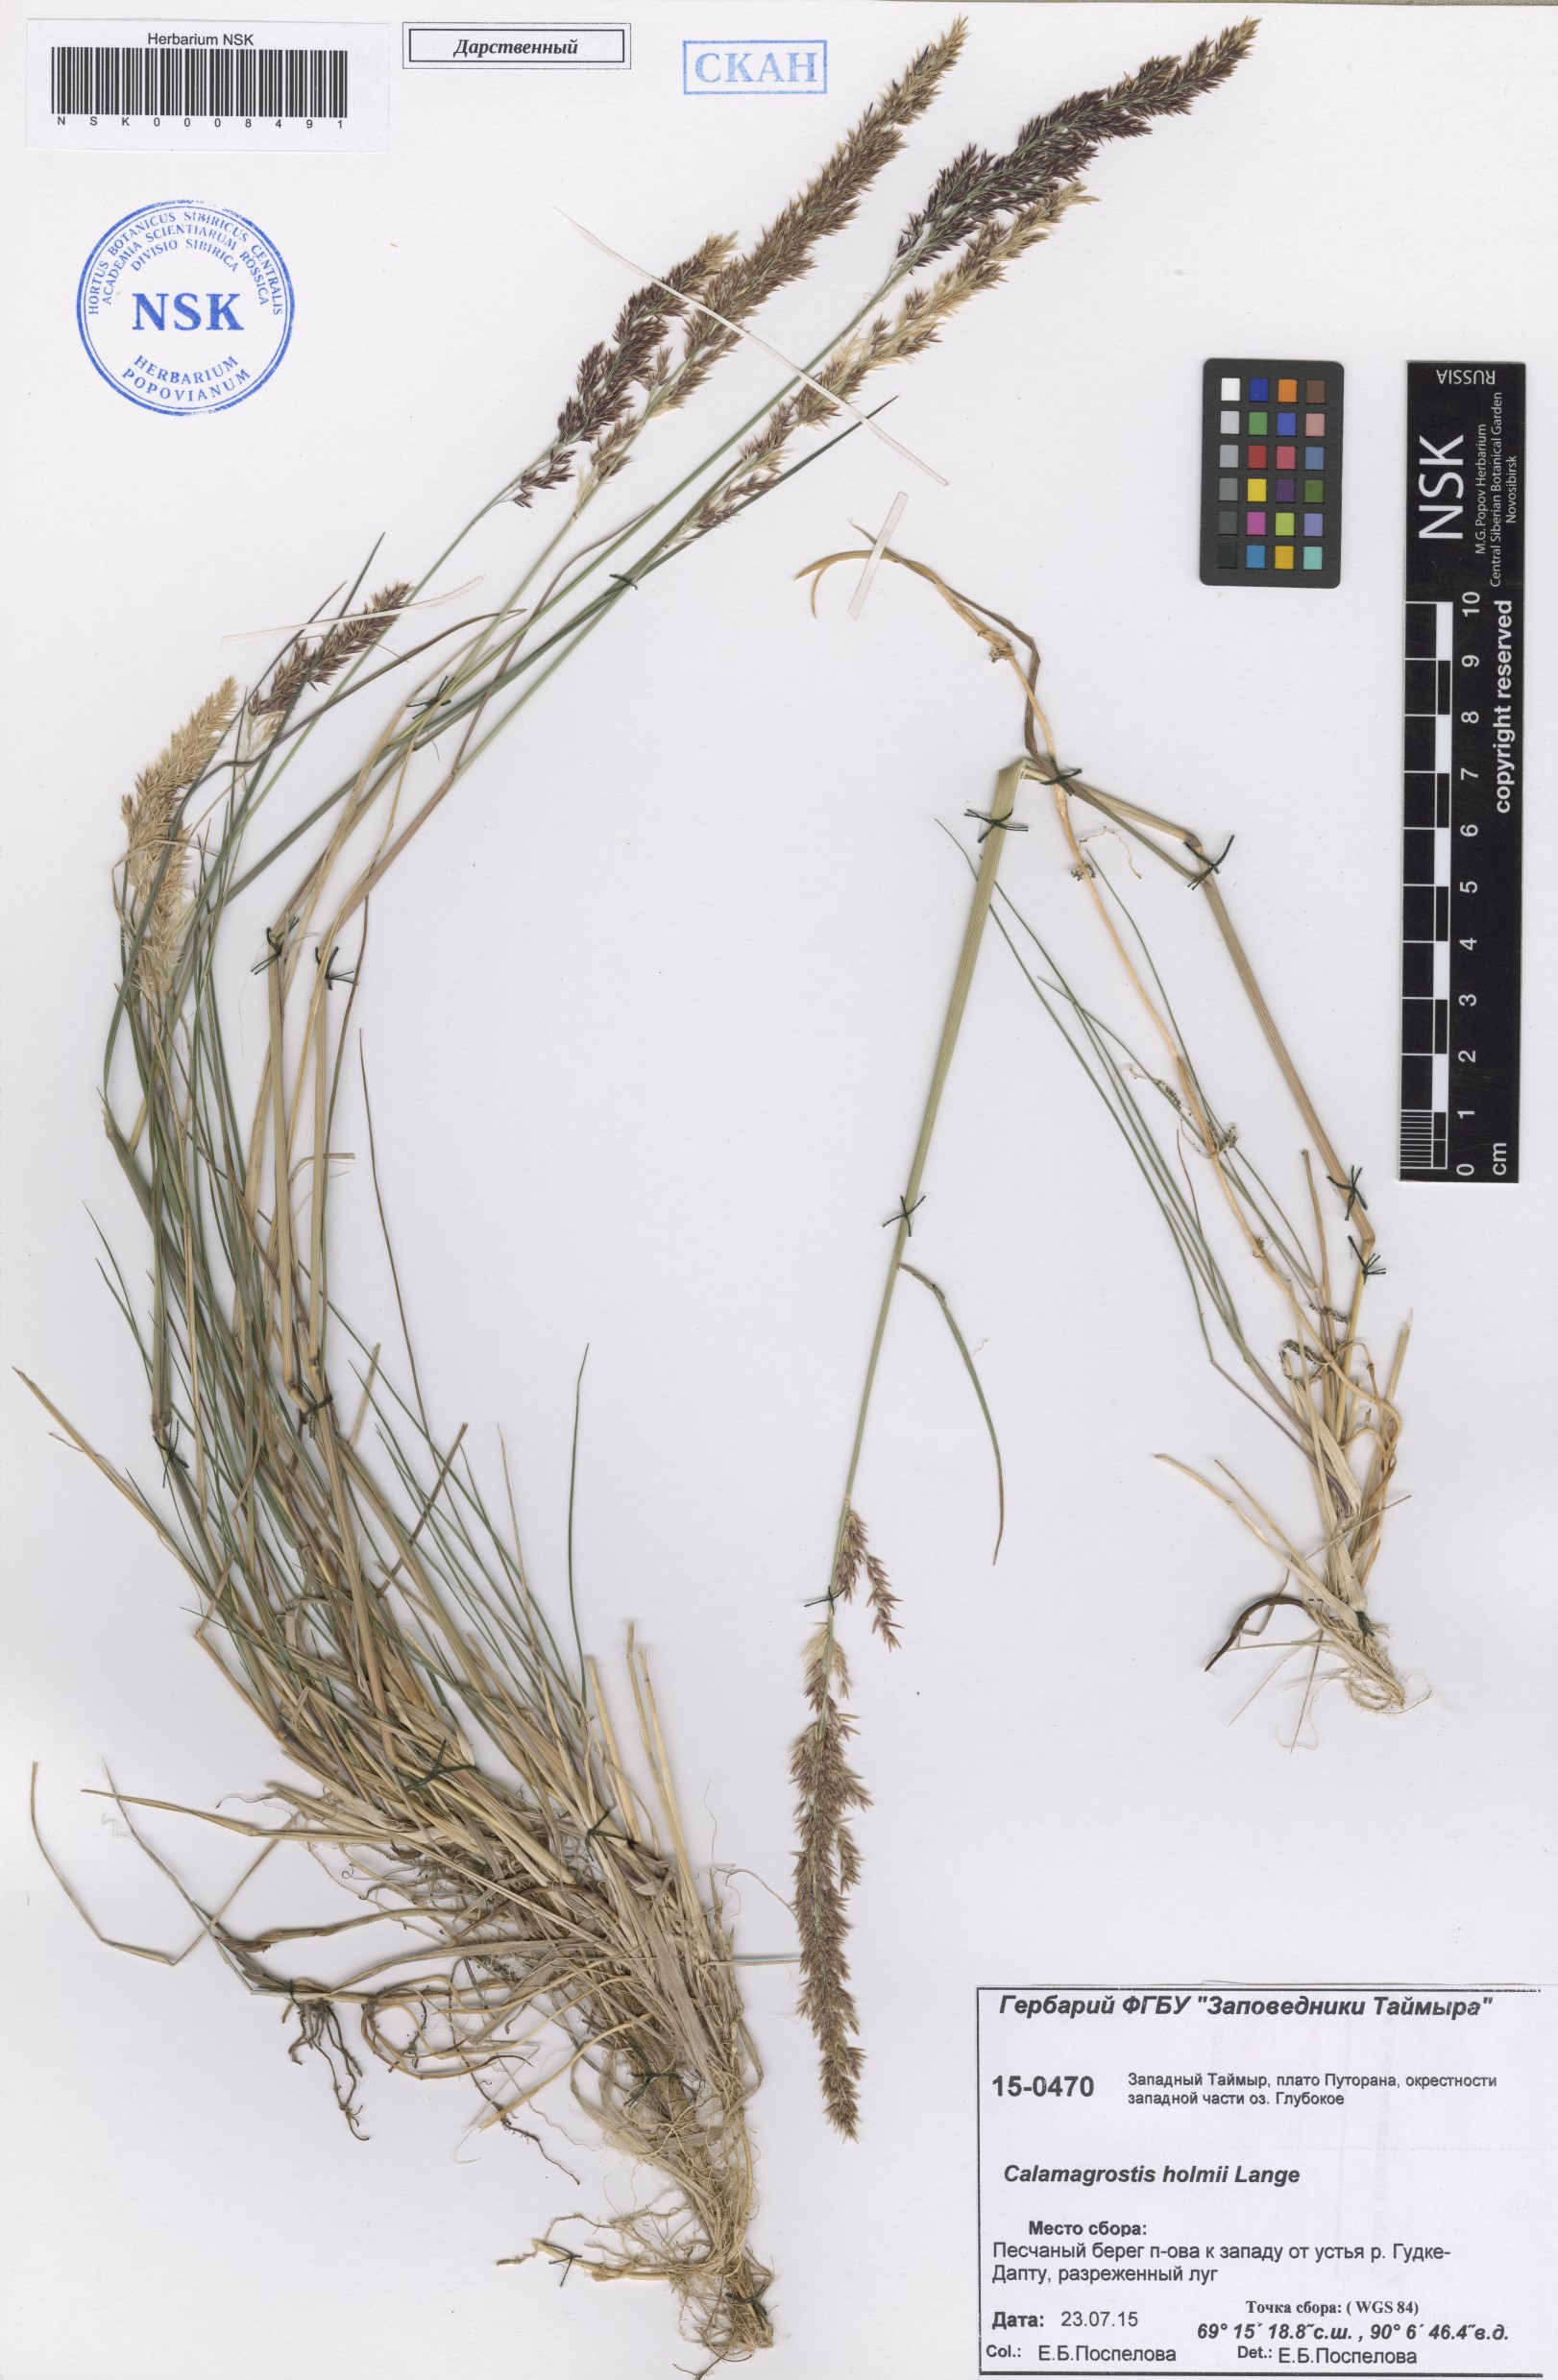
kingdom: Plantae
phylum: Tracheophyta
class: Liliopsida
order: Poales
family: Poaceae
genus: Calamagrostis
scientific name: Calamagrostis holmii
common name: Holm's reedgrass
